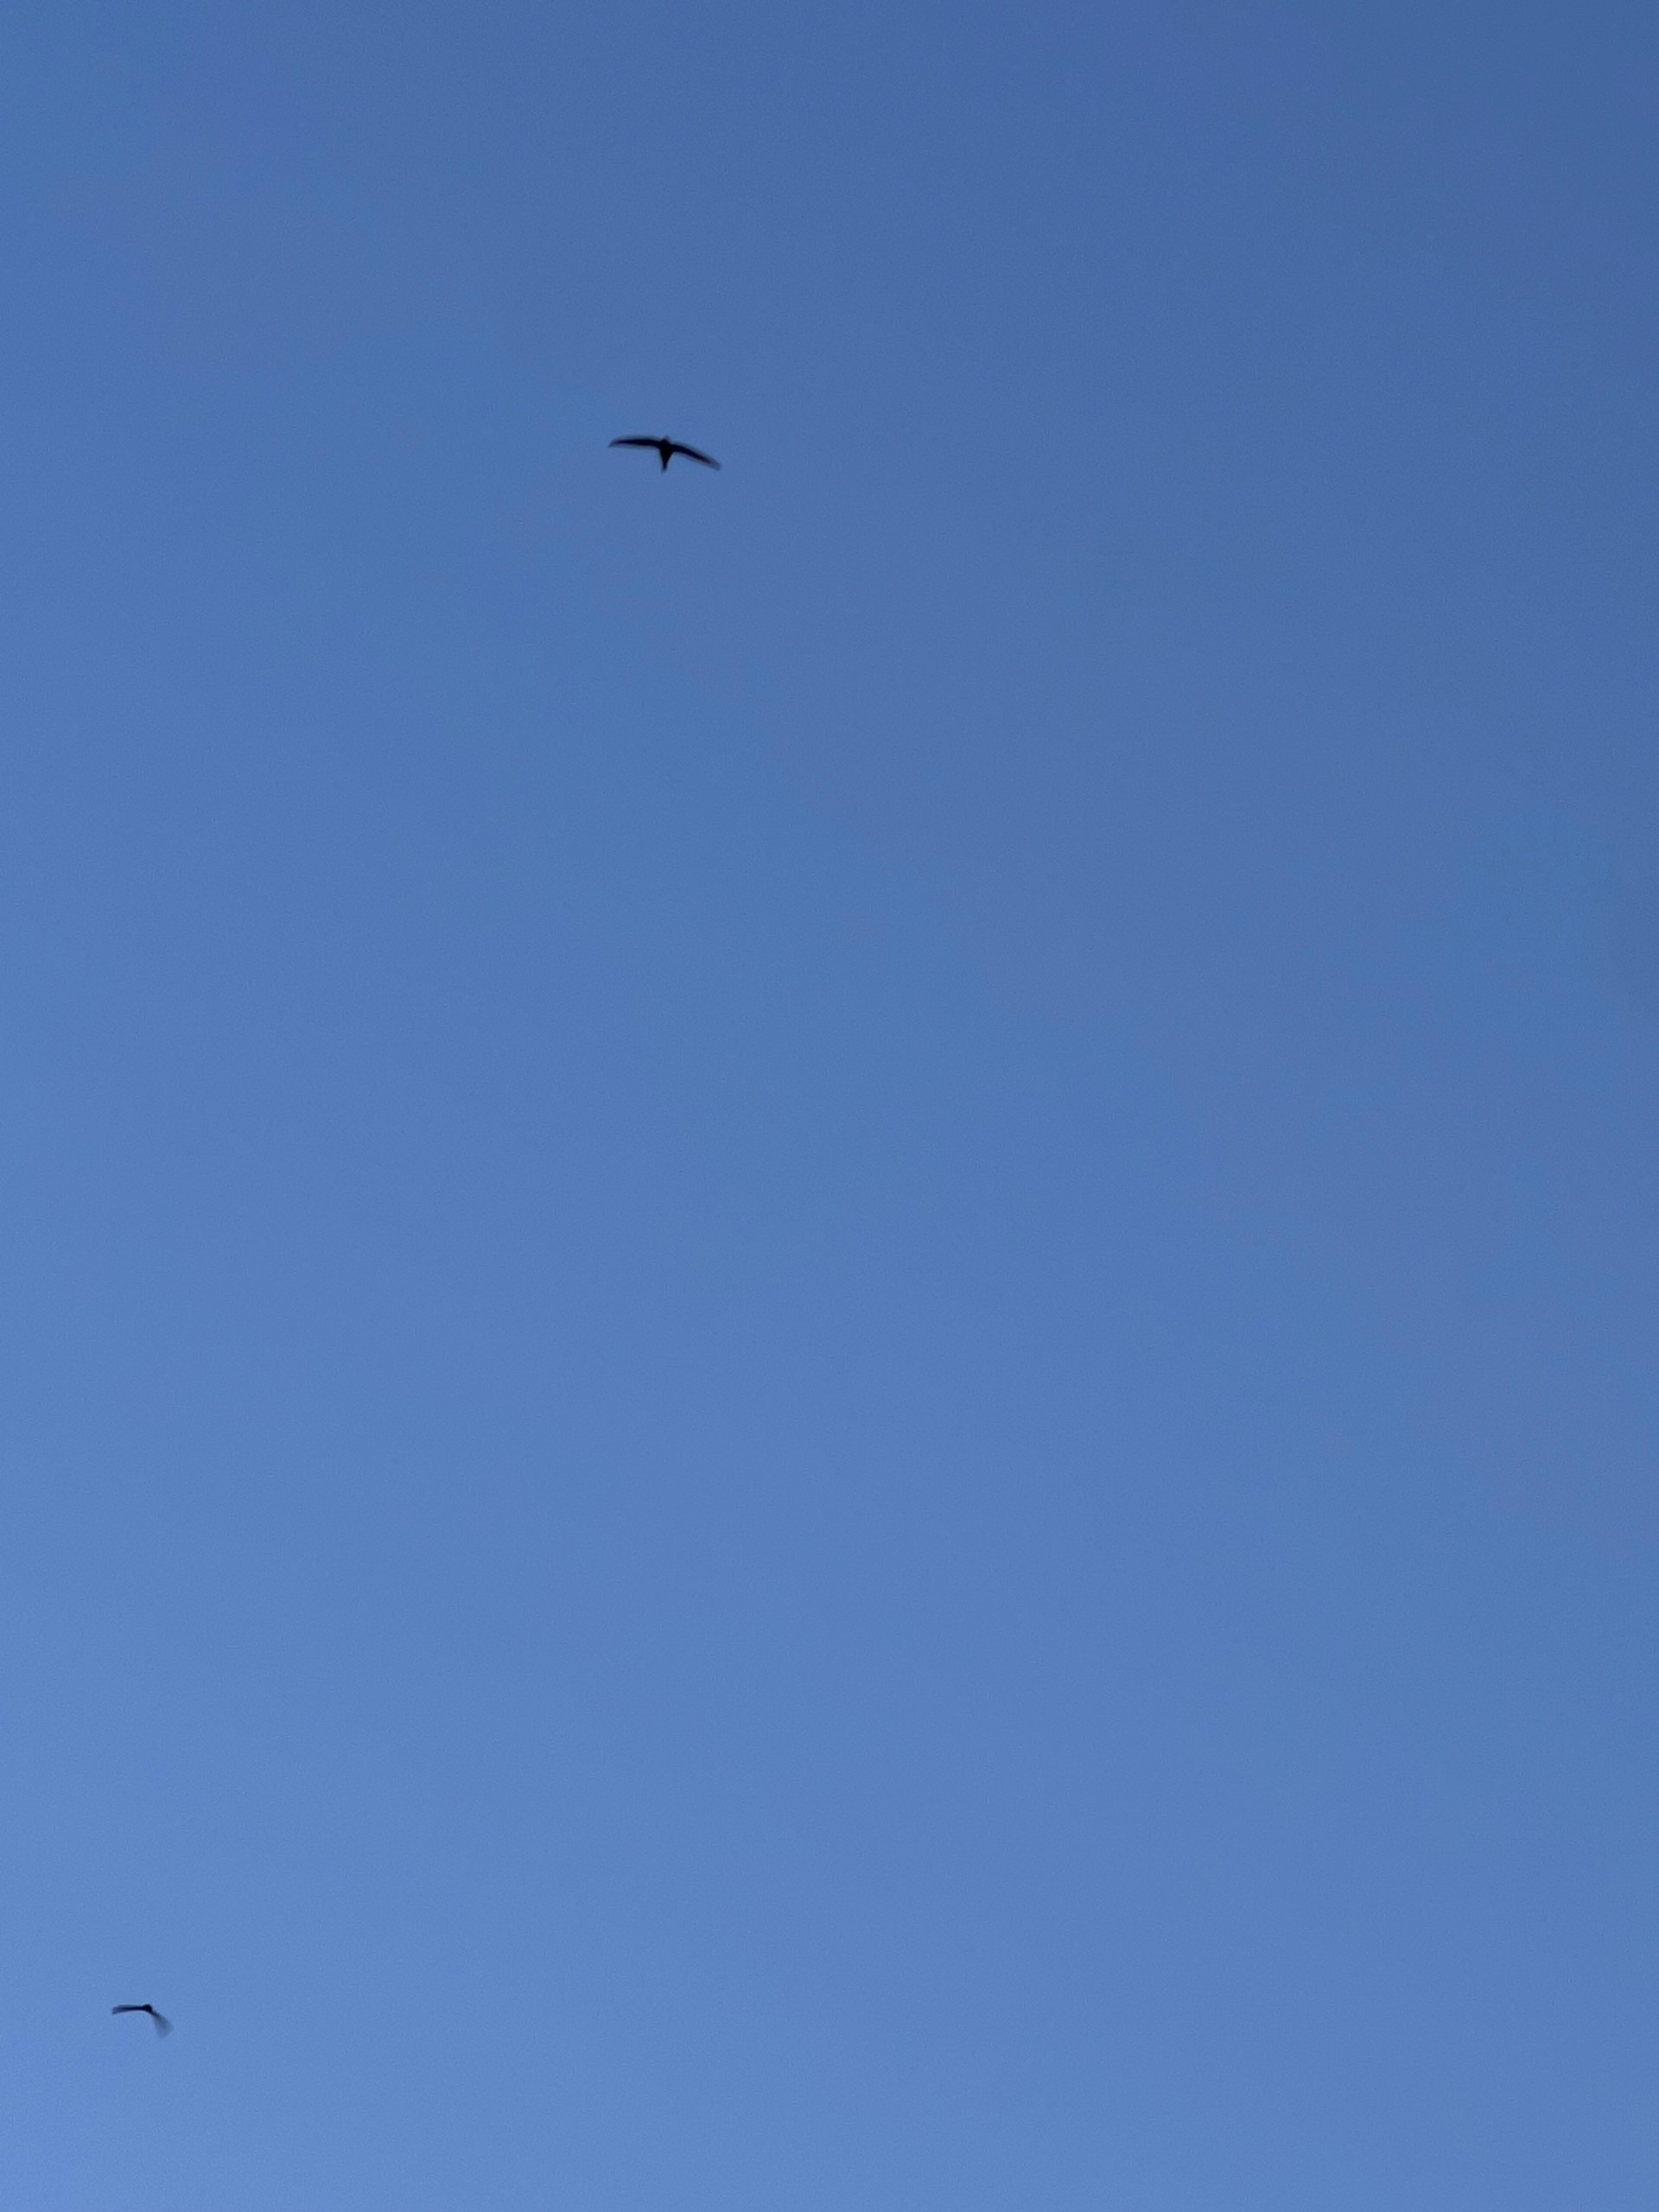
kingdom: Animalia
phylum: Chordata
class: Aves
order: Apodiformes
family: Apodidae
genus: Apus
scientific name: Apus apus
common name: Mursejler
